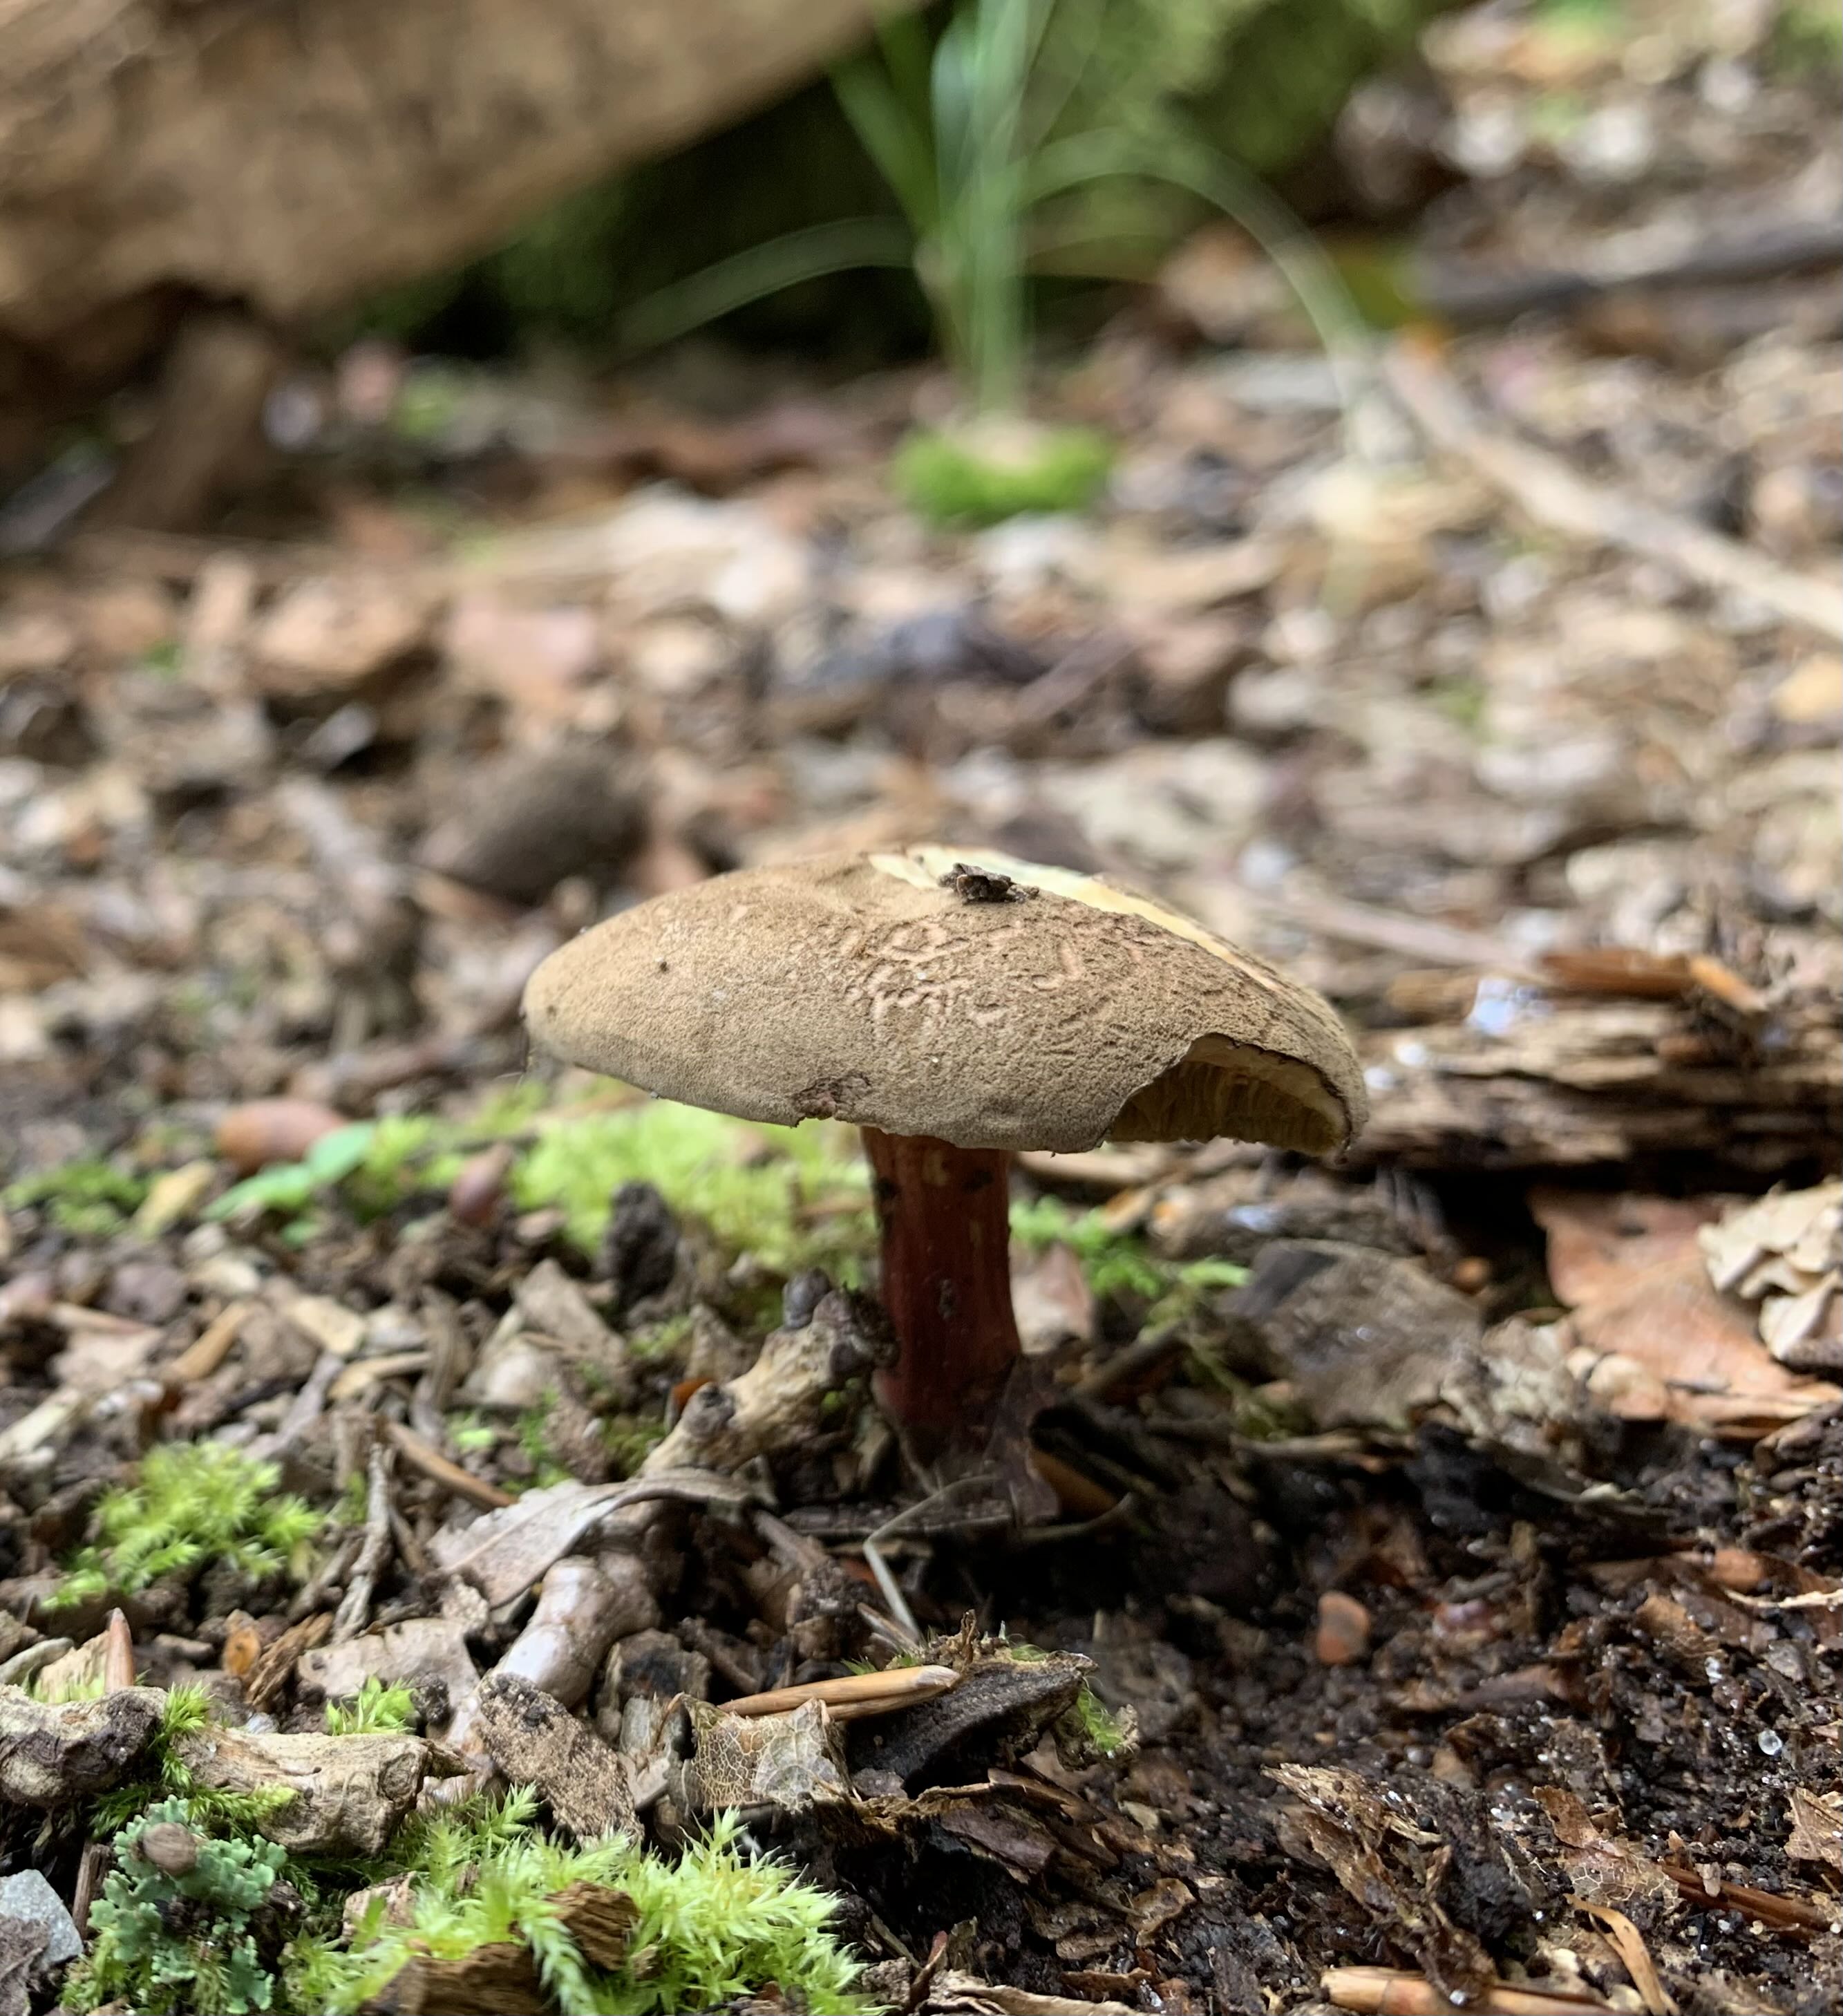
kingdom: Fungi
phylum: Basidiomycota
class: Agaricomycetes
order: Boletales
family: Boletaceae
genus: Xerocomellus
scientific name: Xerocomellus
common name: dværgrørhat
